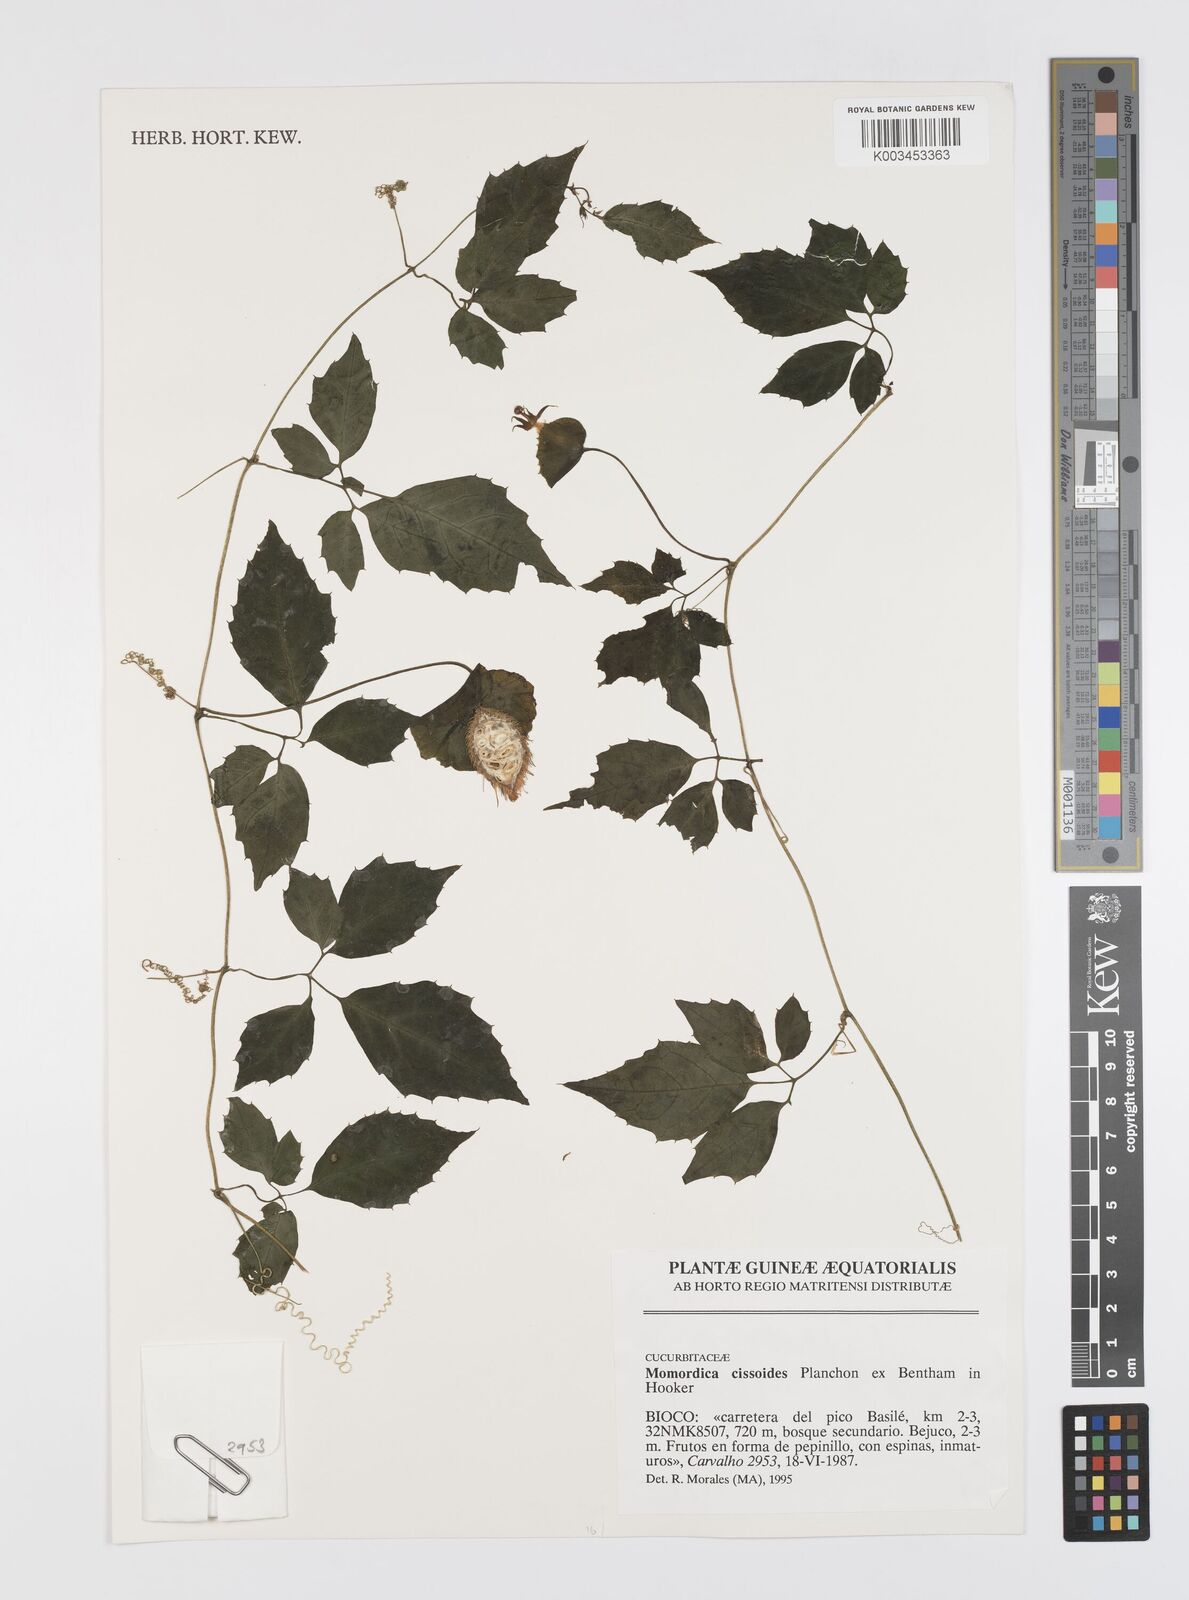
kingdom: Plantae
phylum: Tracheophyta
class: Magnoliopsida
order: Cucurbitales
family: Cucurbitaceae
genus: Momordica
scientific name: Momordica cissoides
